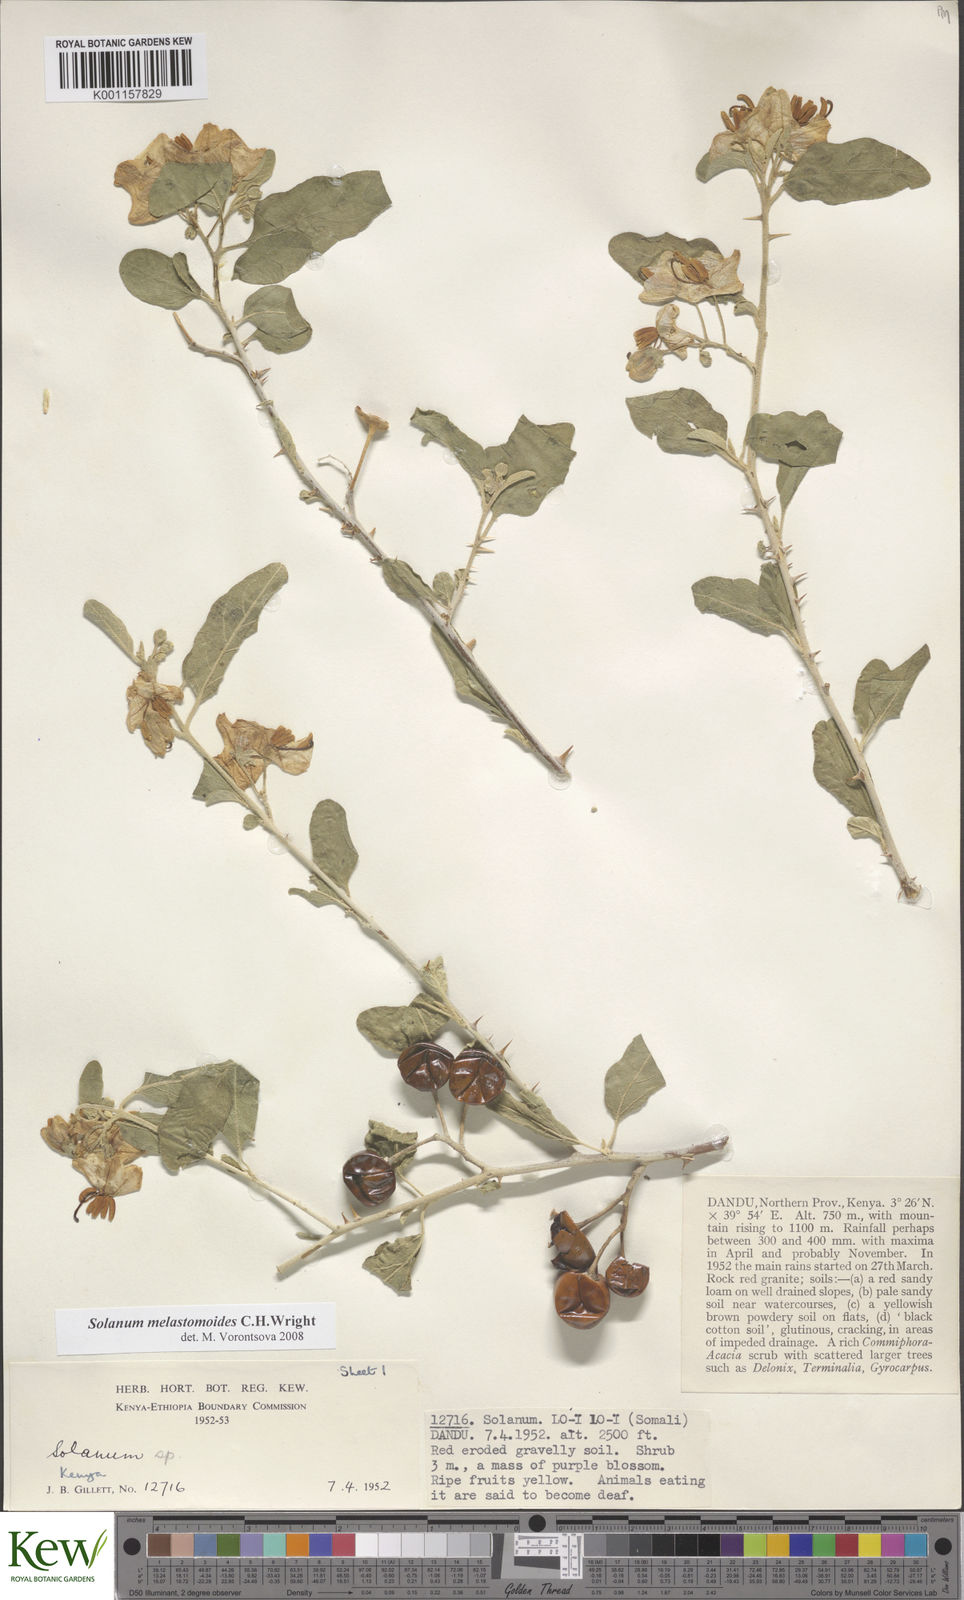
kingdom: Plantae
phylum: Tracheophyta
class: Magnoliopsida
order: Solanales
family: Solanaceae
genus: Solanum
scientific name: Solanum melastomoides
